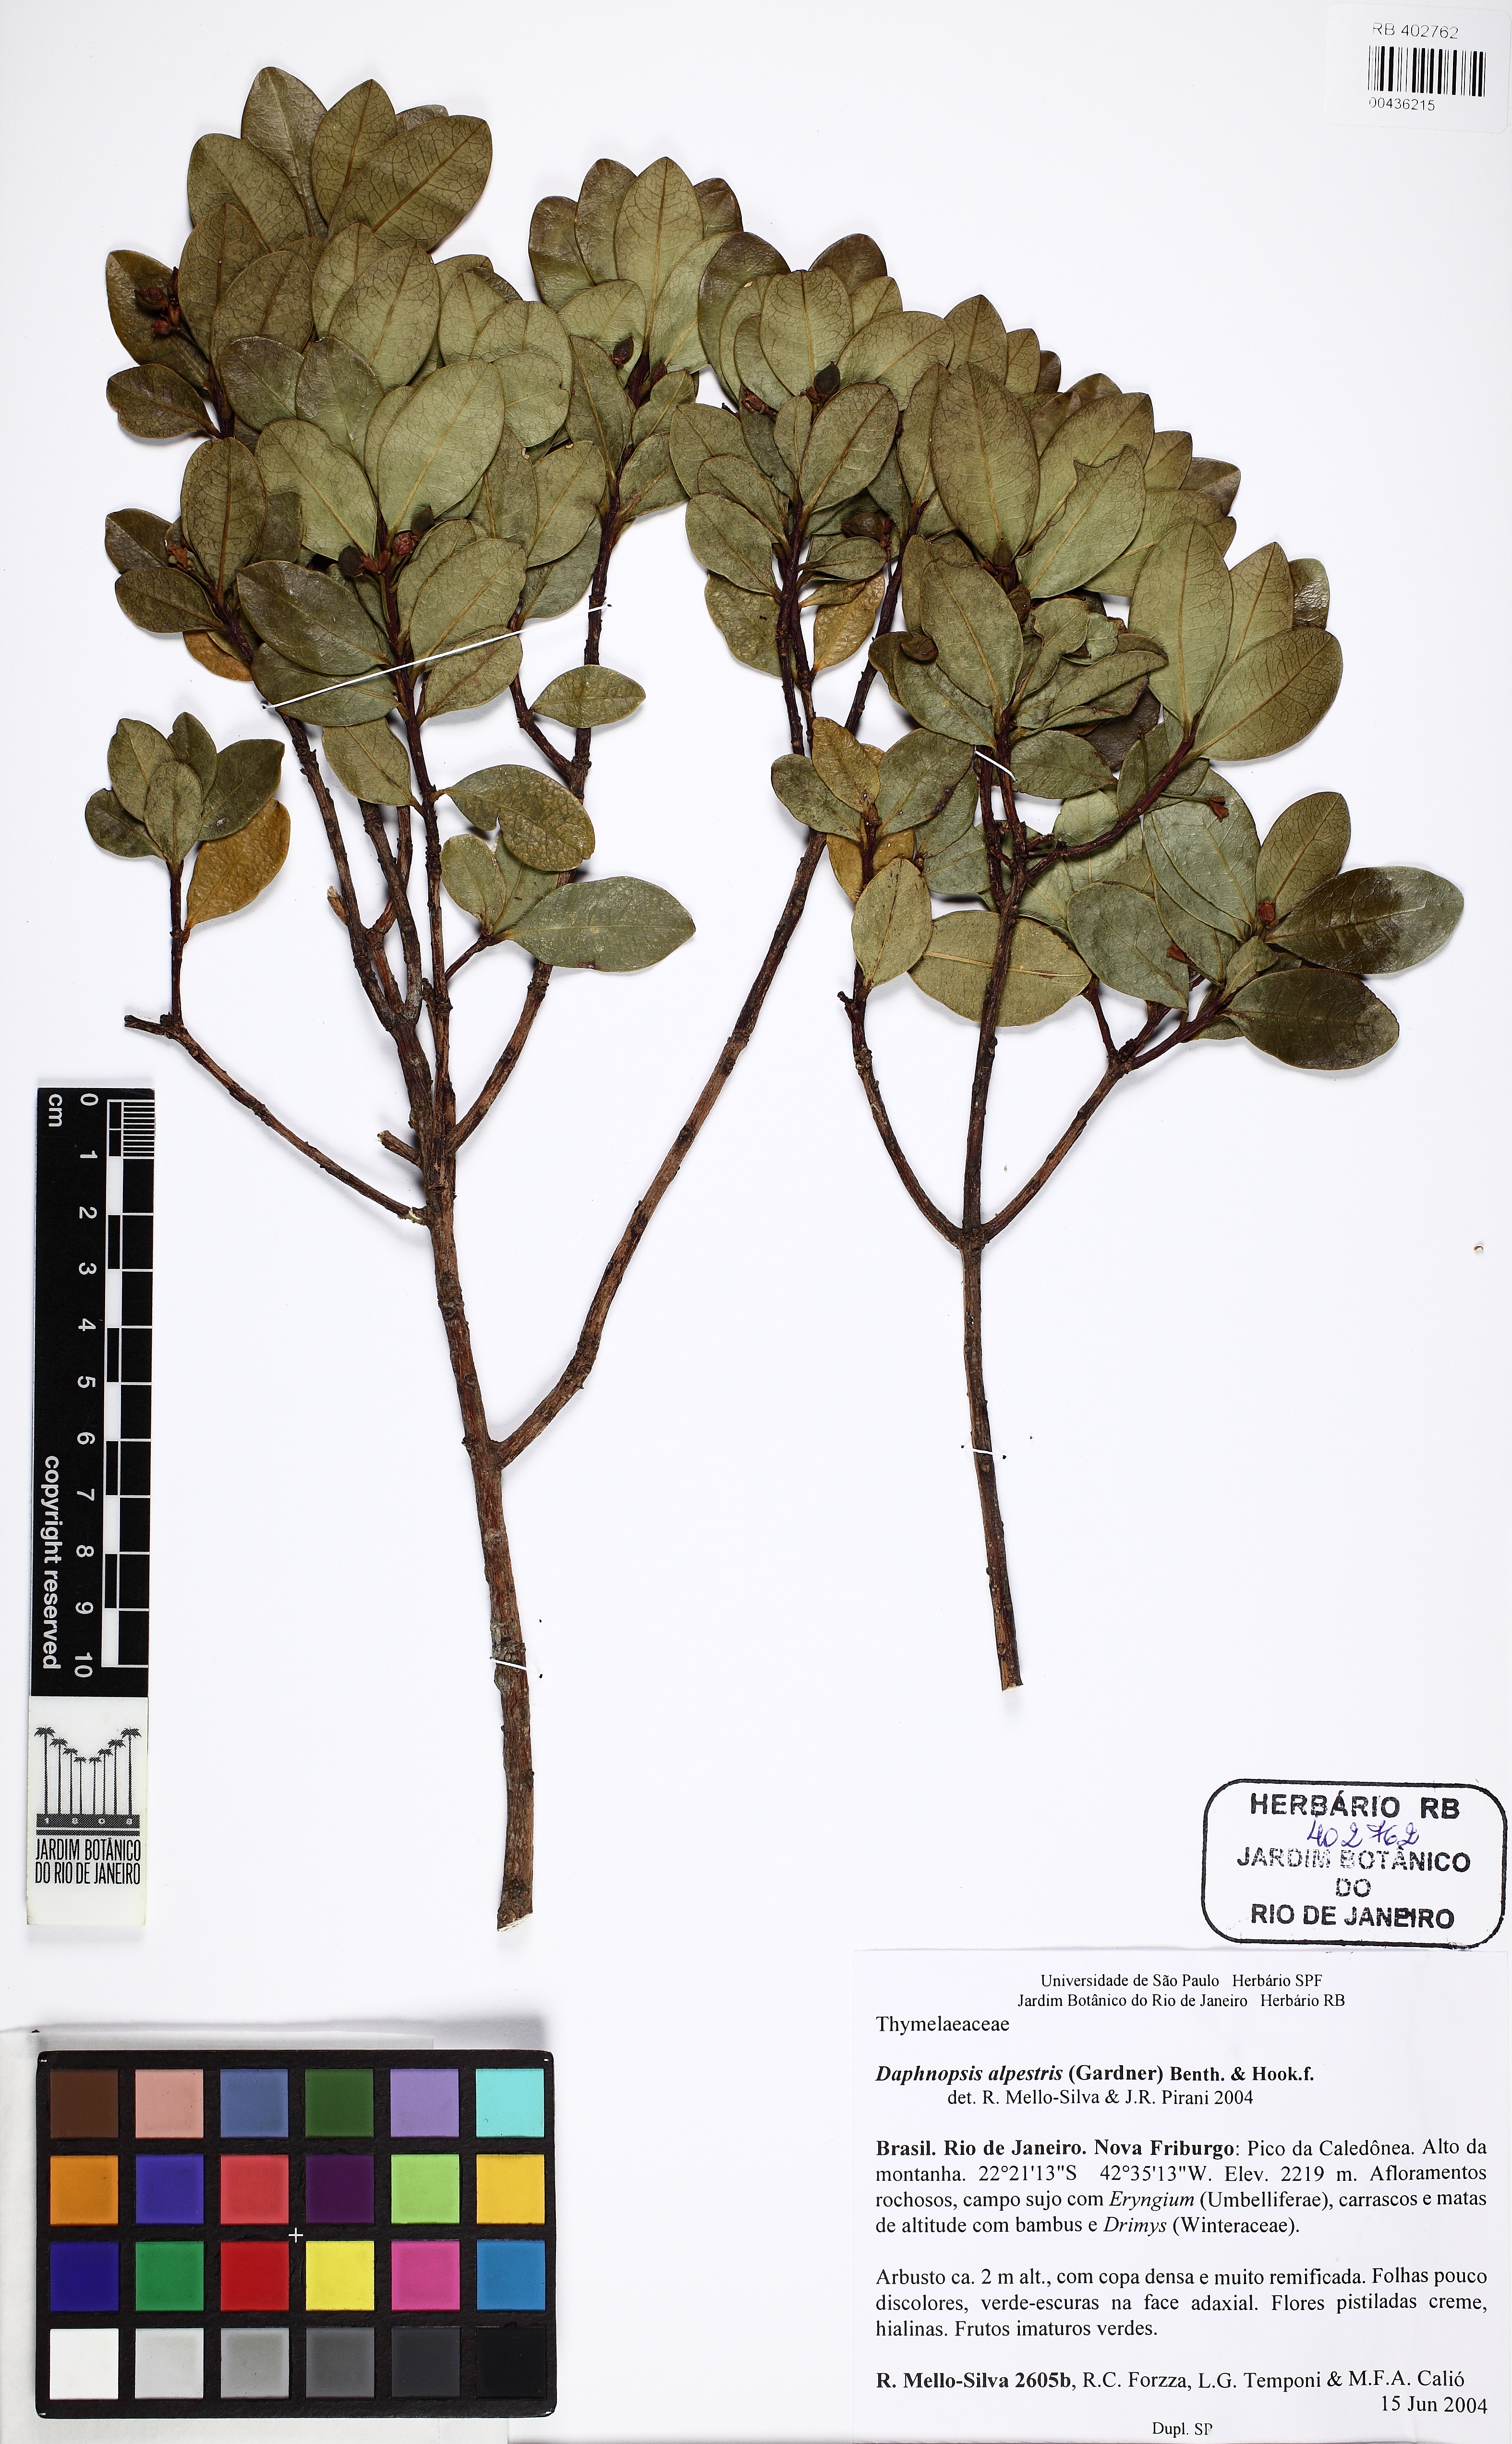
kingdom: Plantae
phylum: Tracheophyta
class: Magnoliopsida
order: Malvales
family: Thymelaeaceae
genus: Daphnopsis
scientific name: Daphnopsis alpestris
